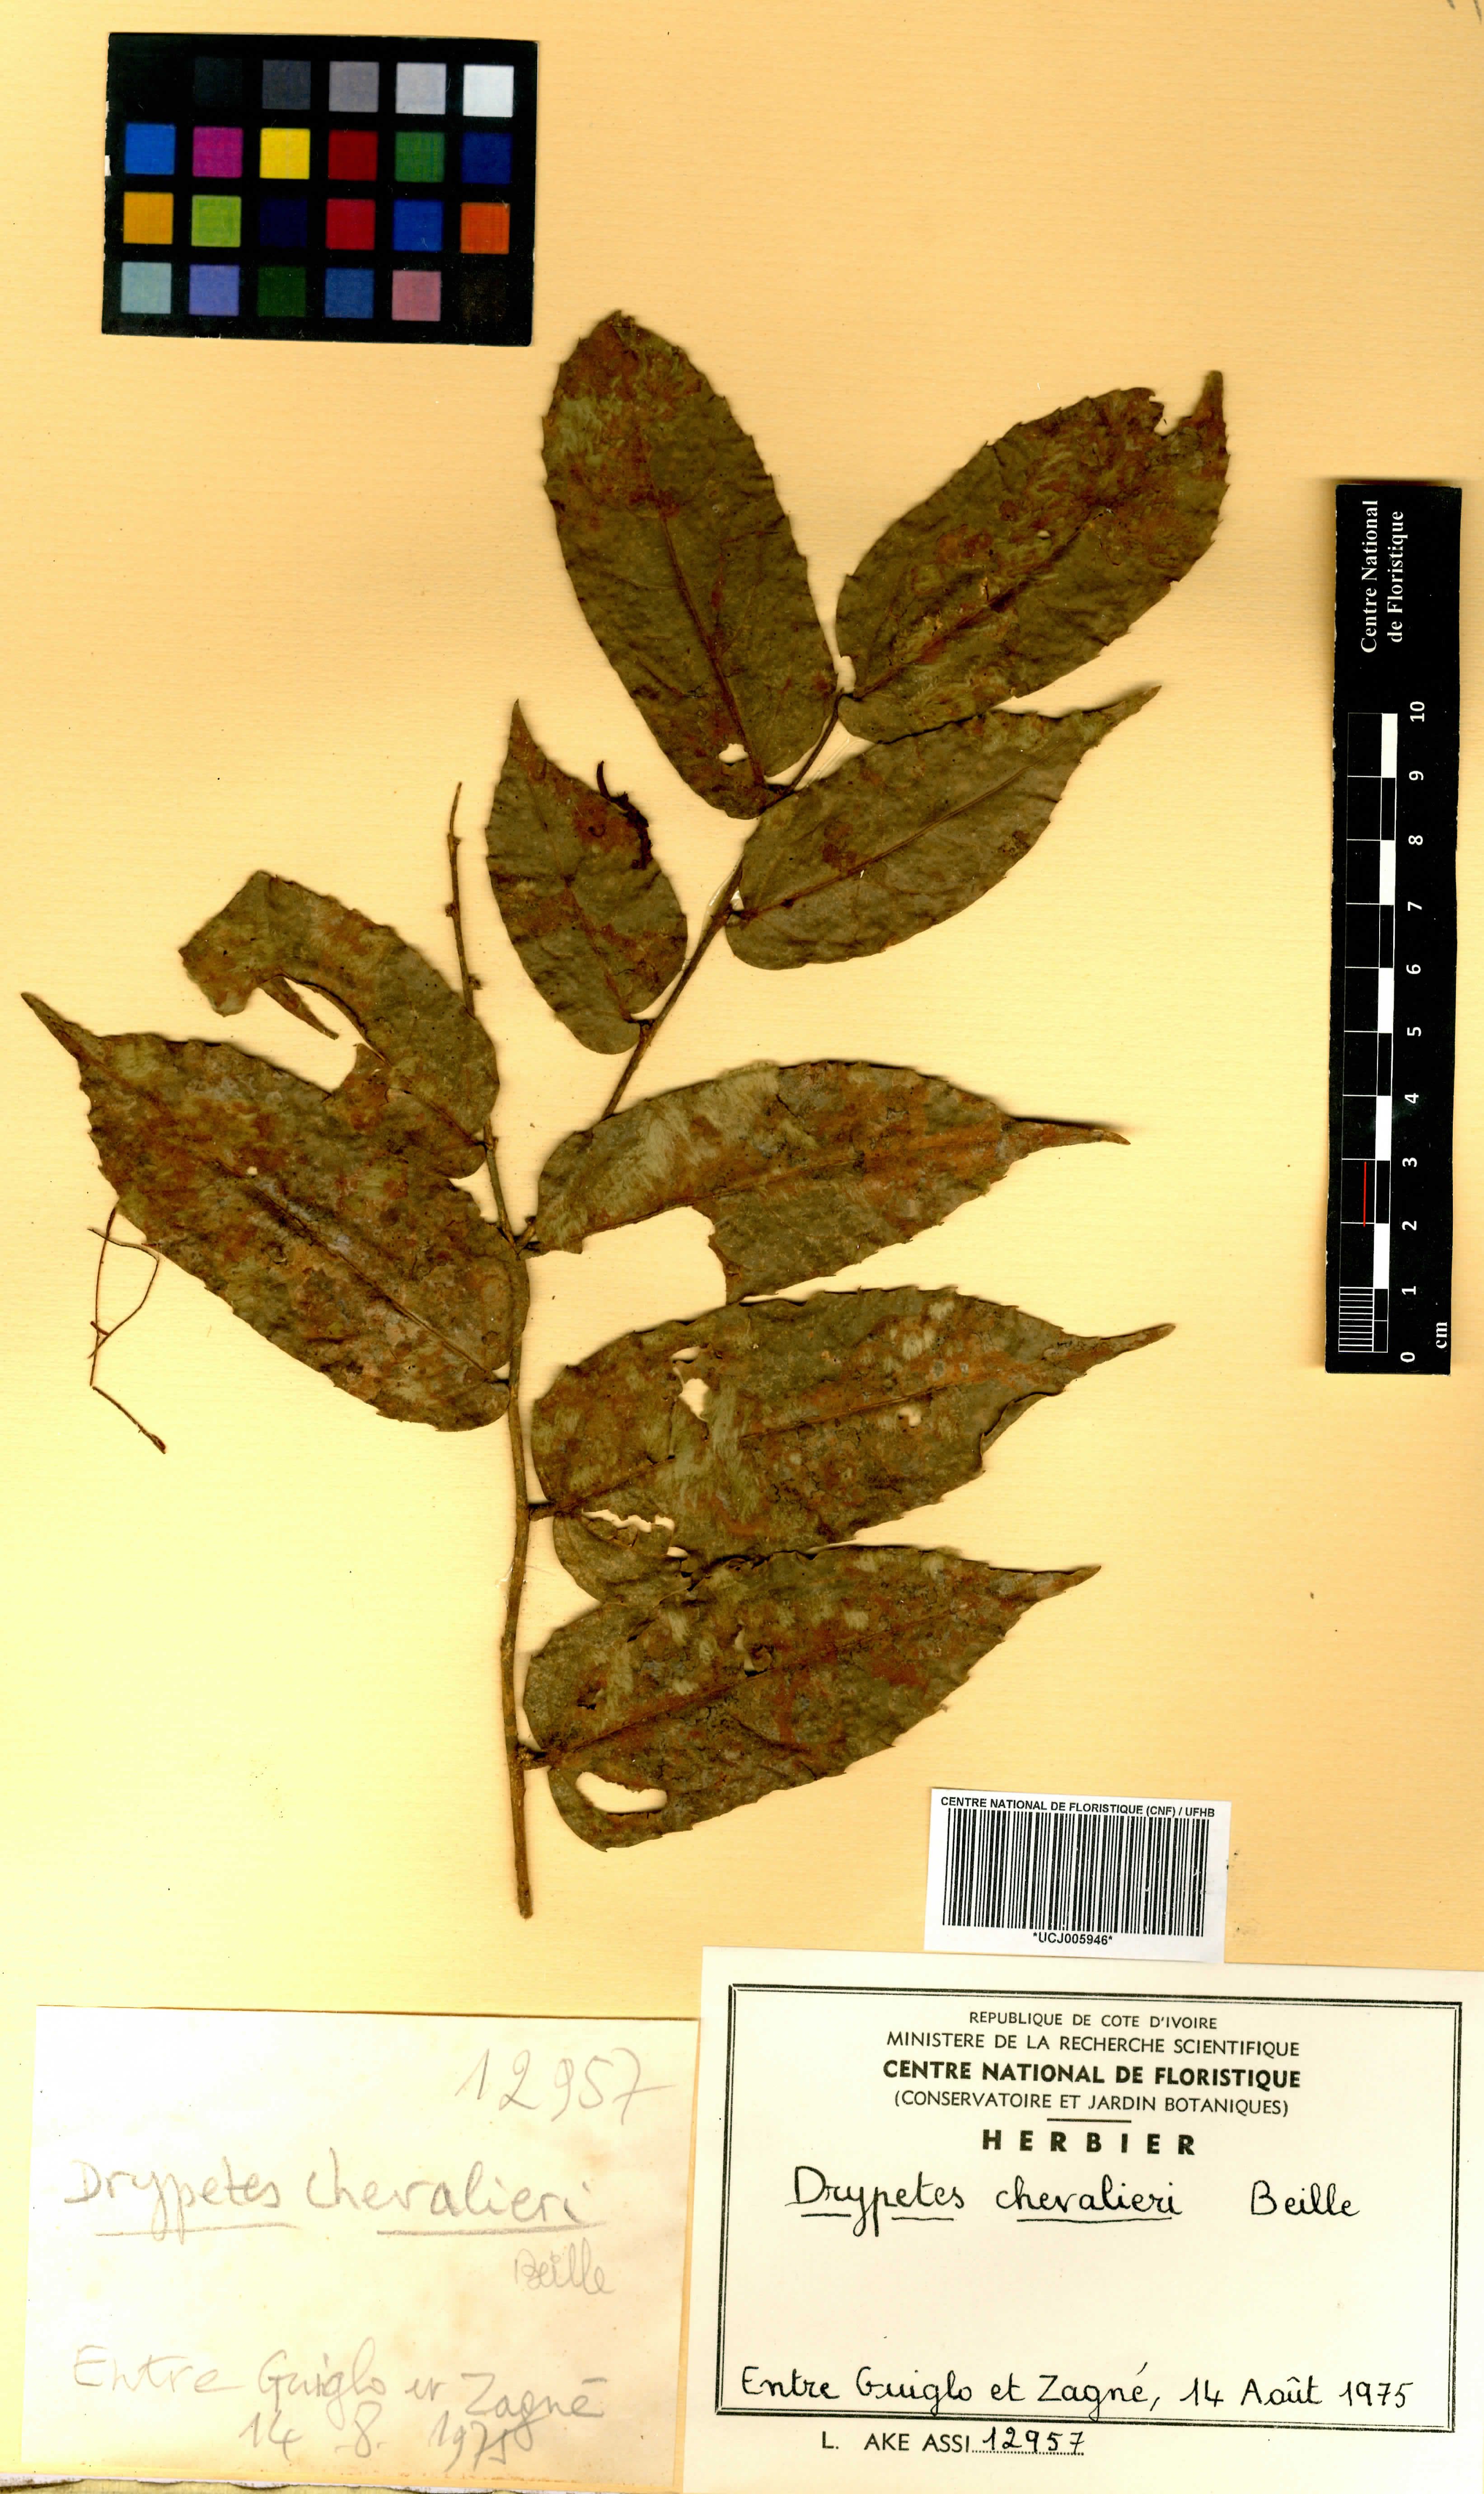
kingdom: Plantae
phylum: Tracheophyta
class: Magnoliopsida
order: Malpighiales
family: Putranjivaceae
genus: Drypetes
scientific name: Drypetes chevalieri
